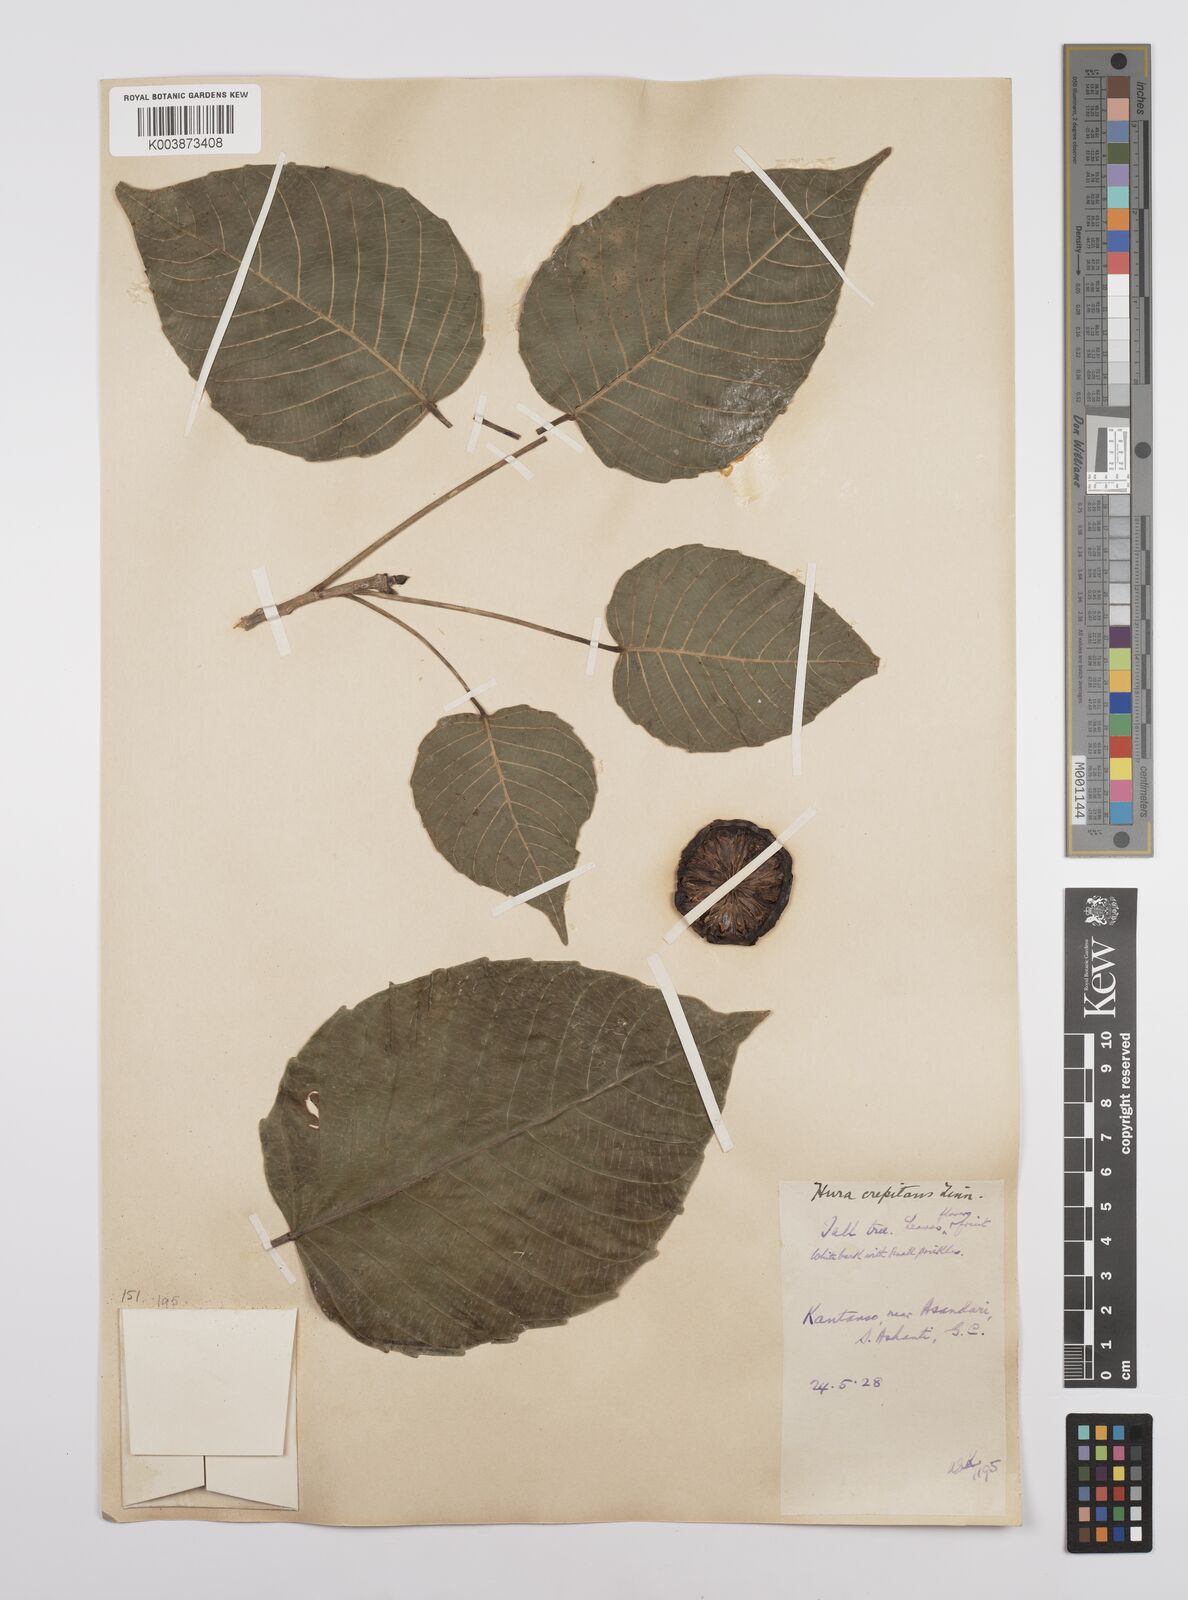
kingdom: Plantae
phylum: Tracheophyta
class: Magnoliopsida
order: Malpighiales
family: Euphorbiaceae
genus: Hura
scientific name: Hura crepitans
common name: Sandboxtree
